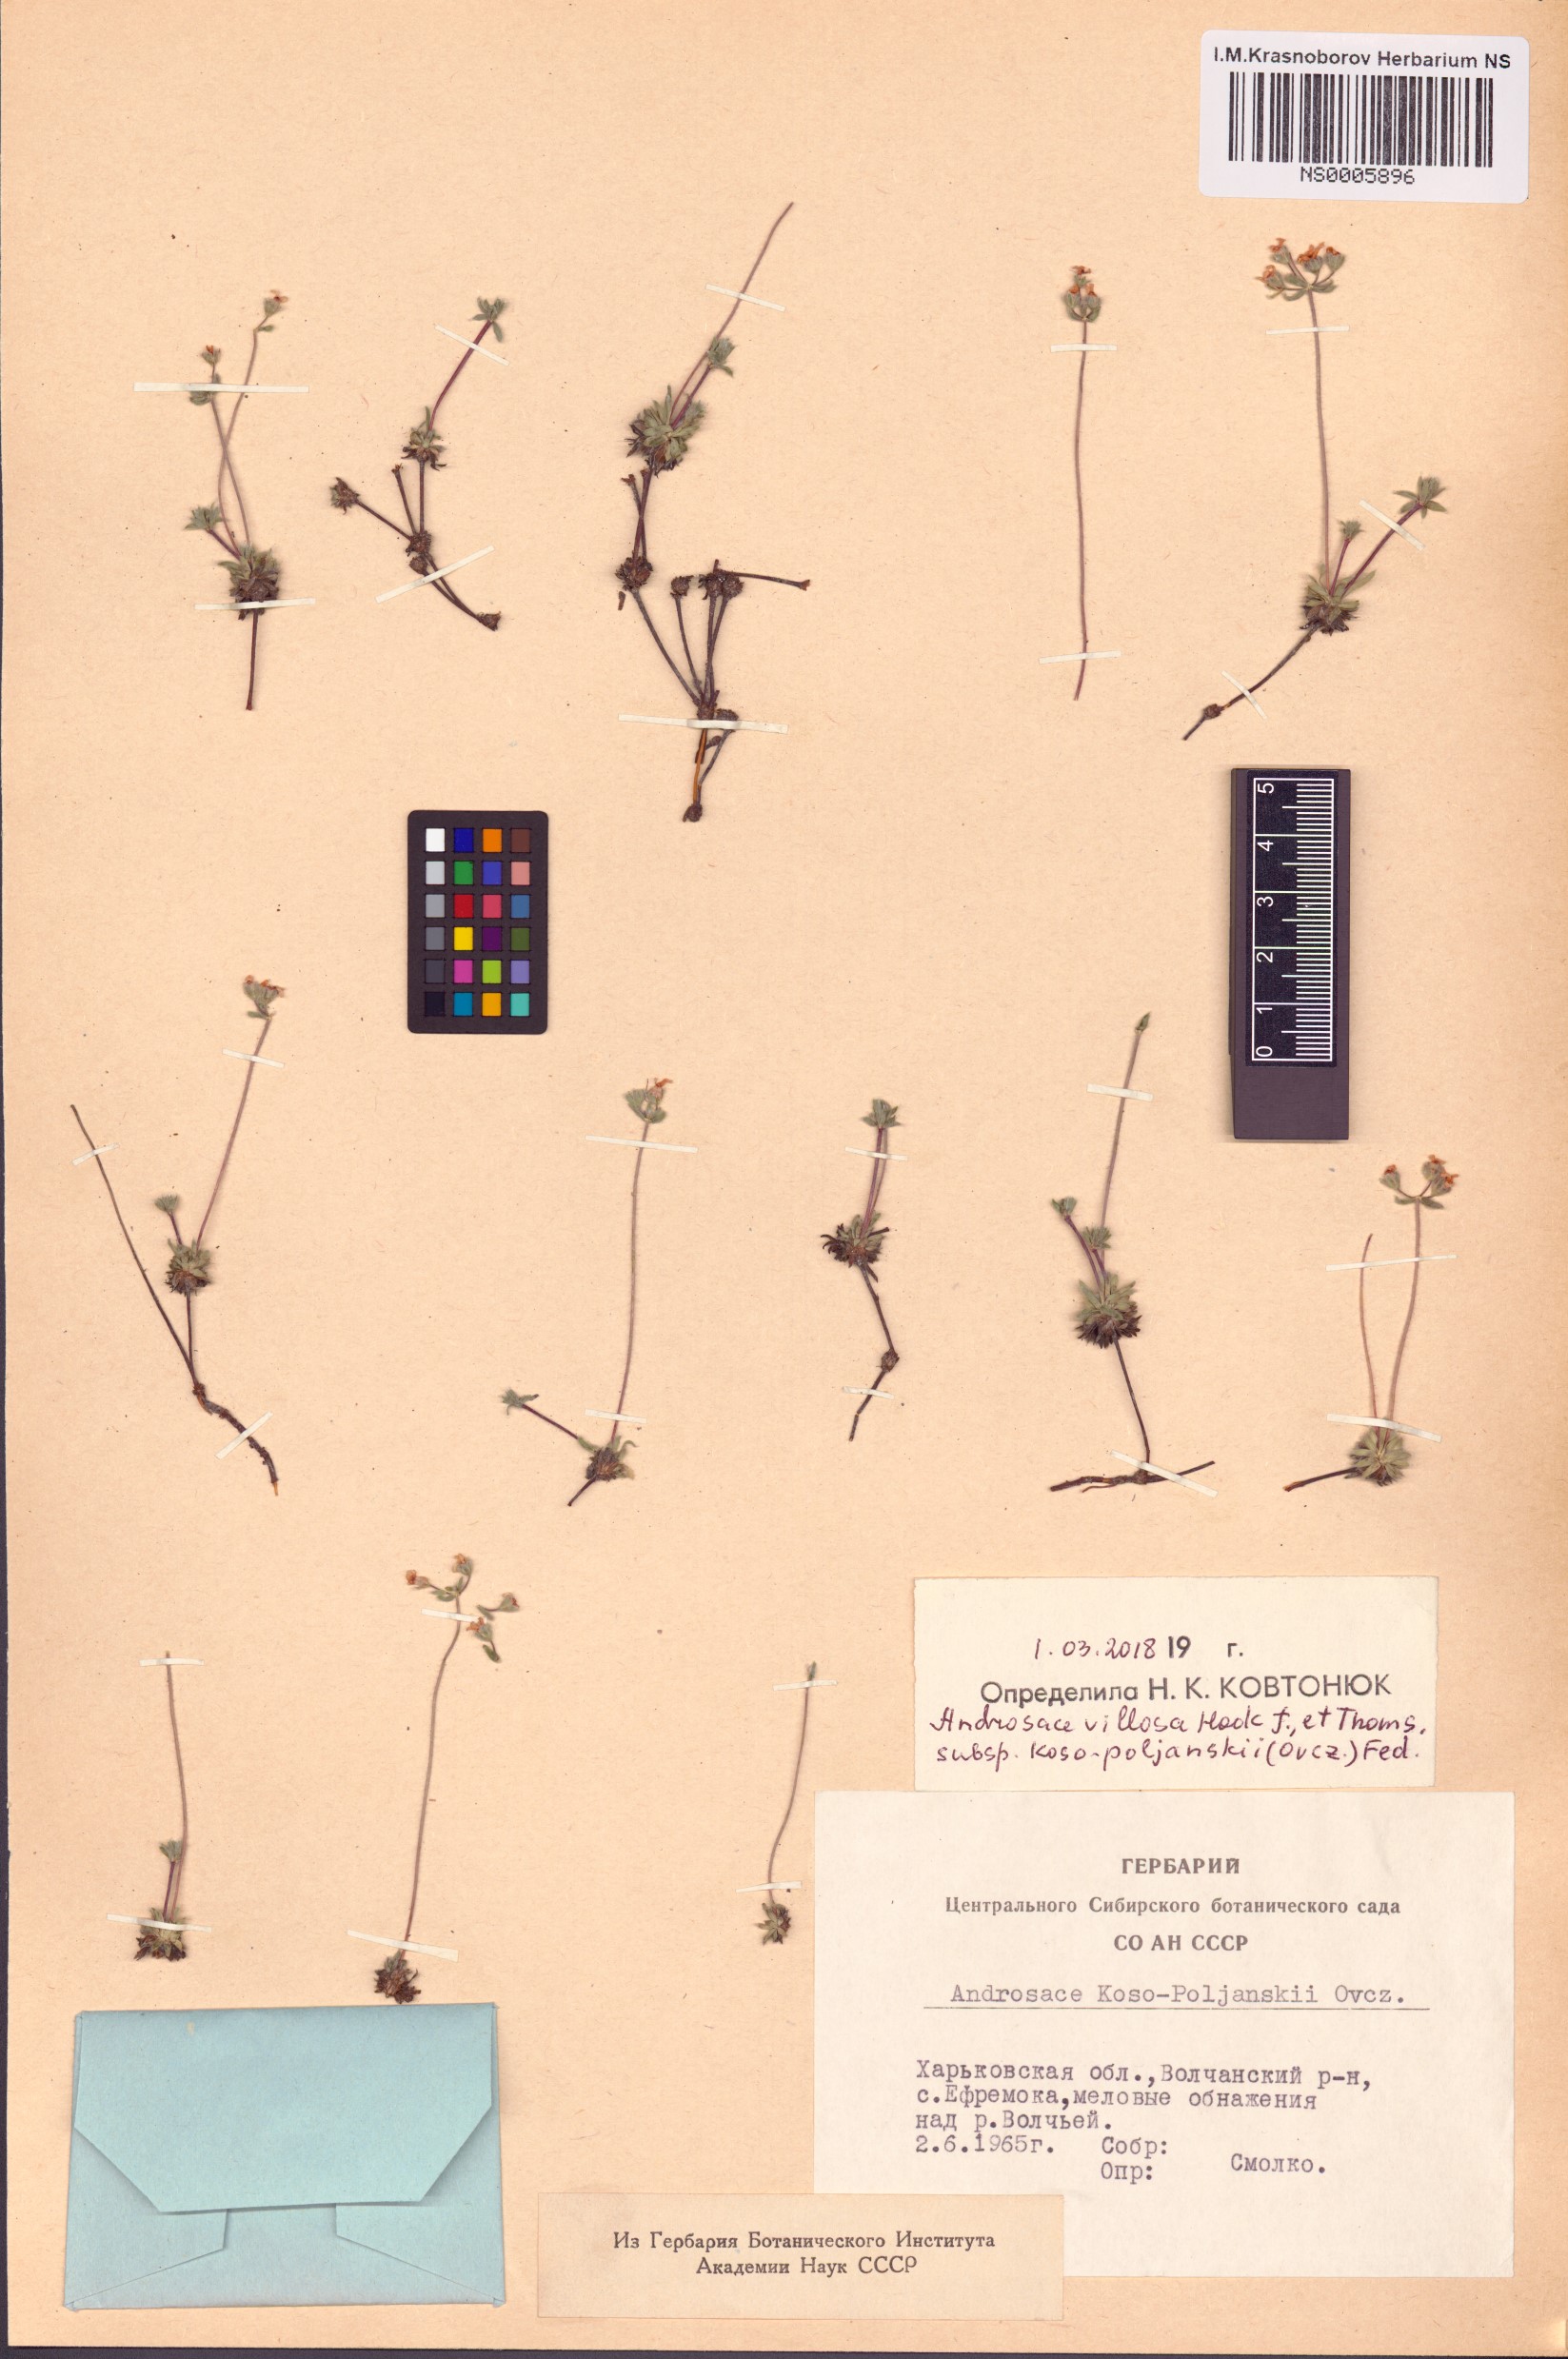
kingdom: Plantae
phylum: Tracheophyta
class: Magnoliopsida
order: Ericales
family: Primulaceae
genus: Androsace
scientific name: Androsace villosa
